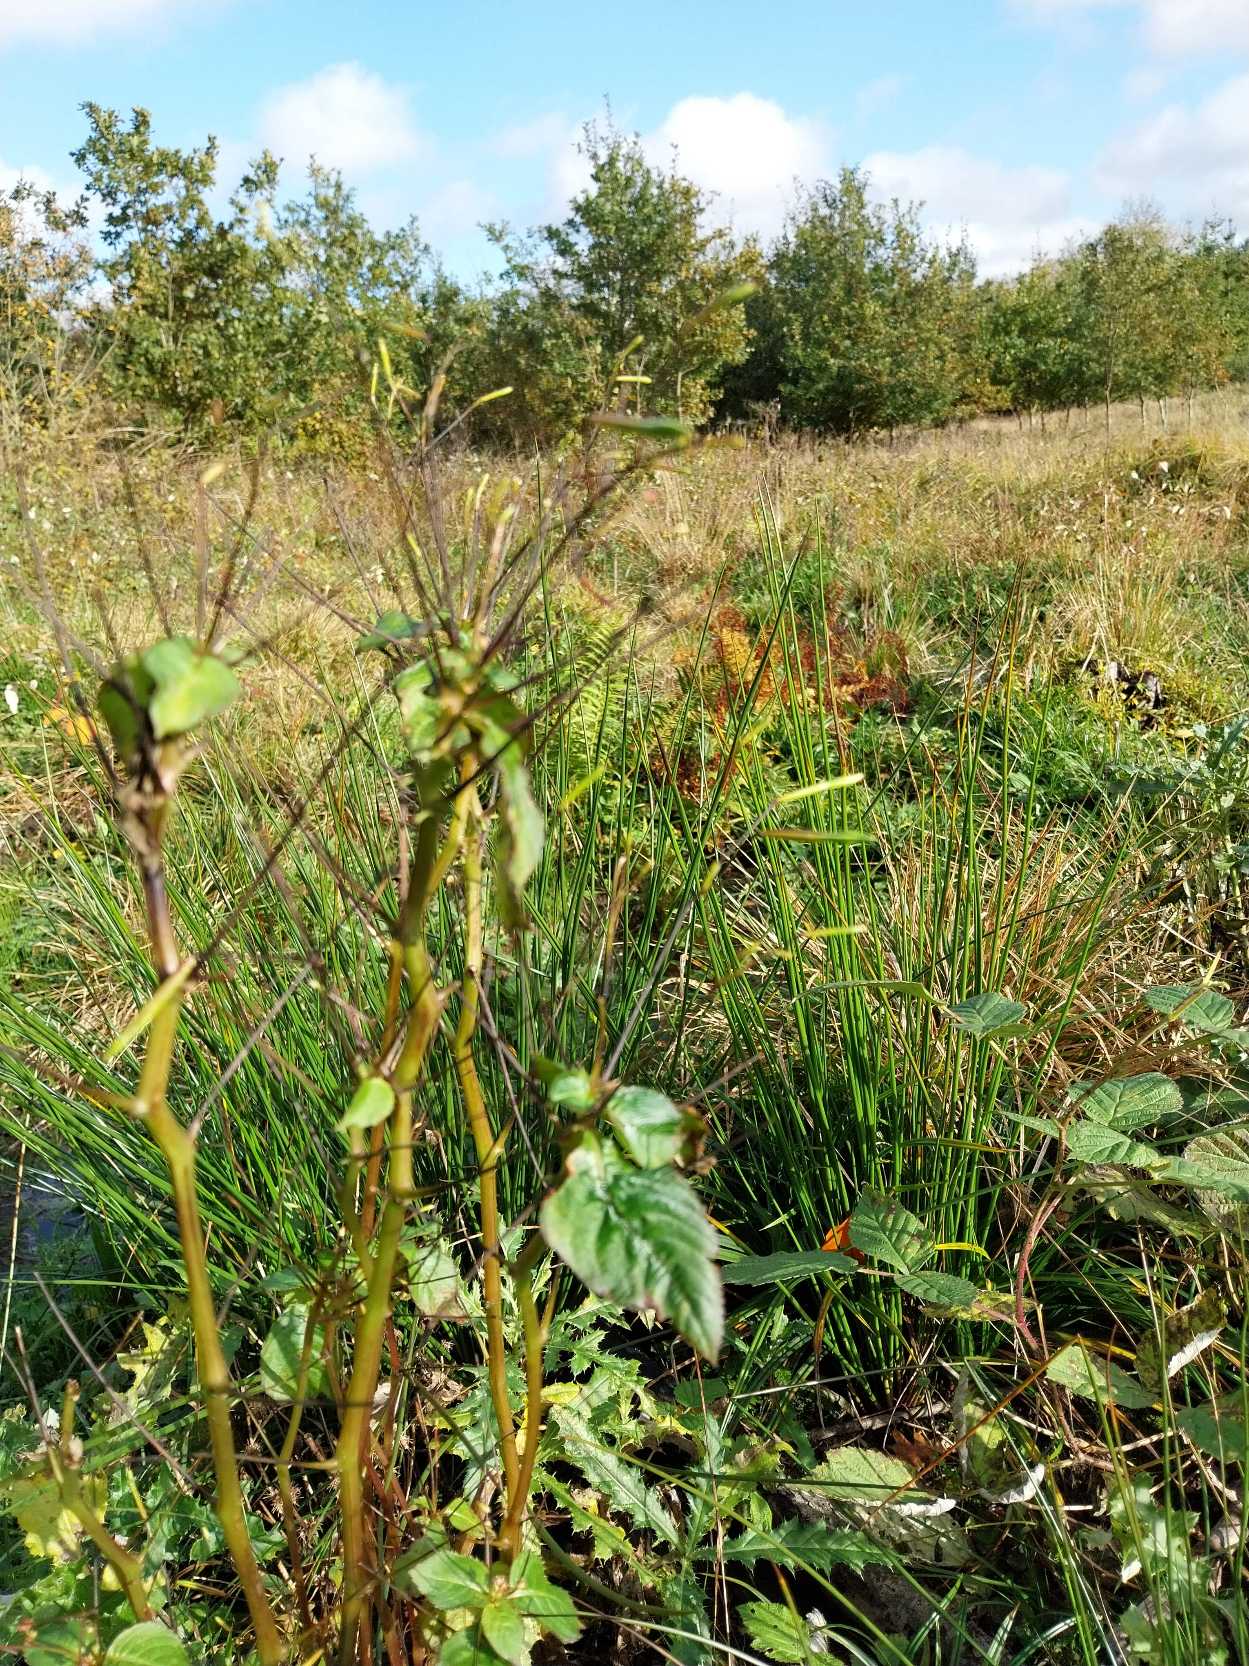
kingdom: Plantae
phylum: Tracheophyta
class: Magnoliopsida
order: Ericales
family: Balsaminaceae
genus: Impatiens
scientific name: Impatiens parviflora
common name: Småblomstret balsamin
